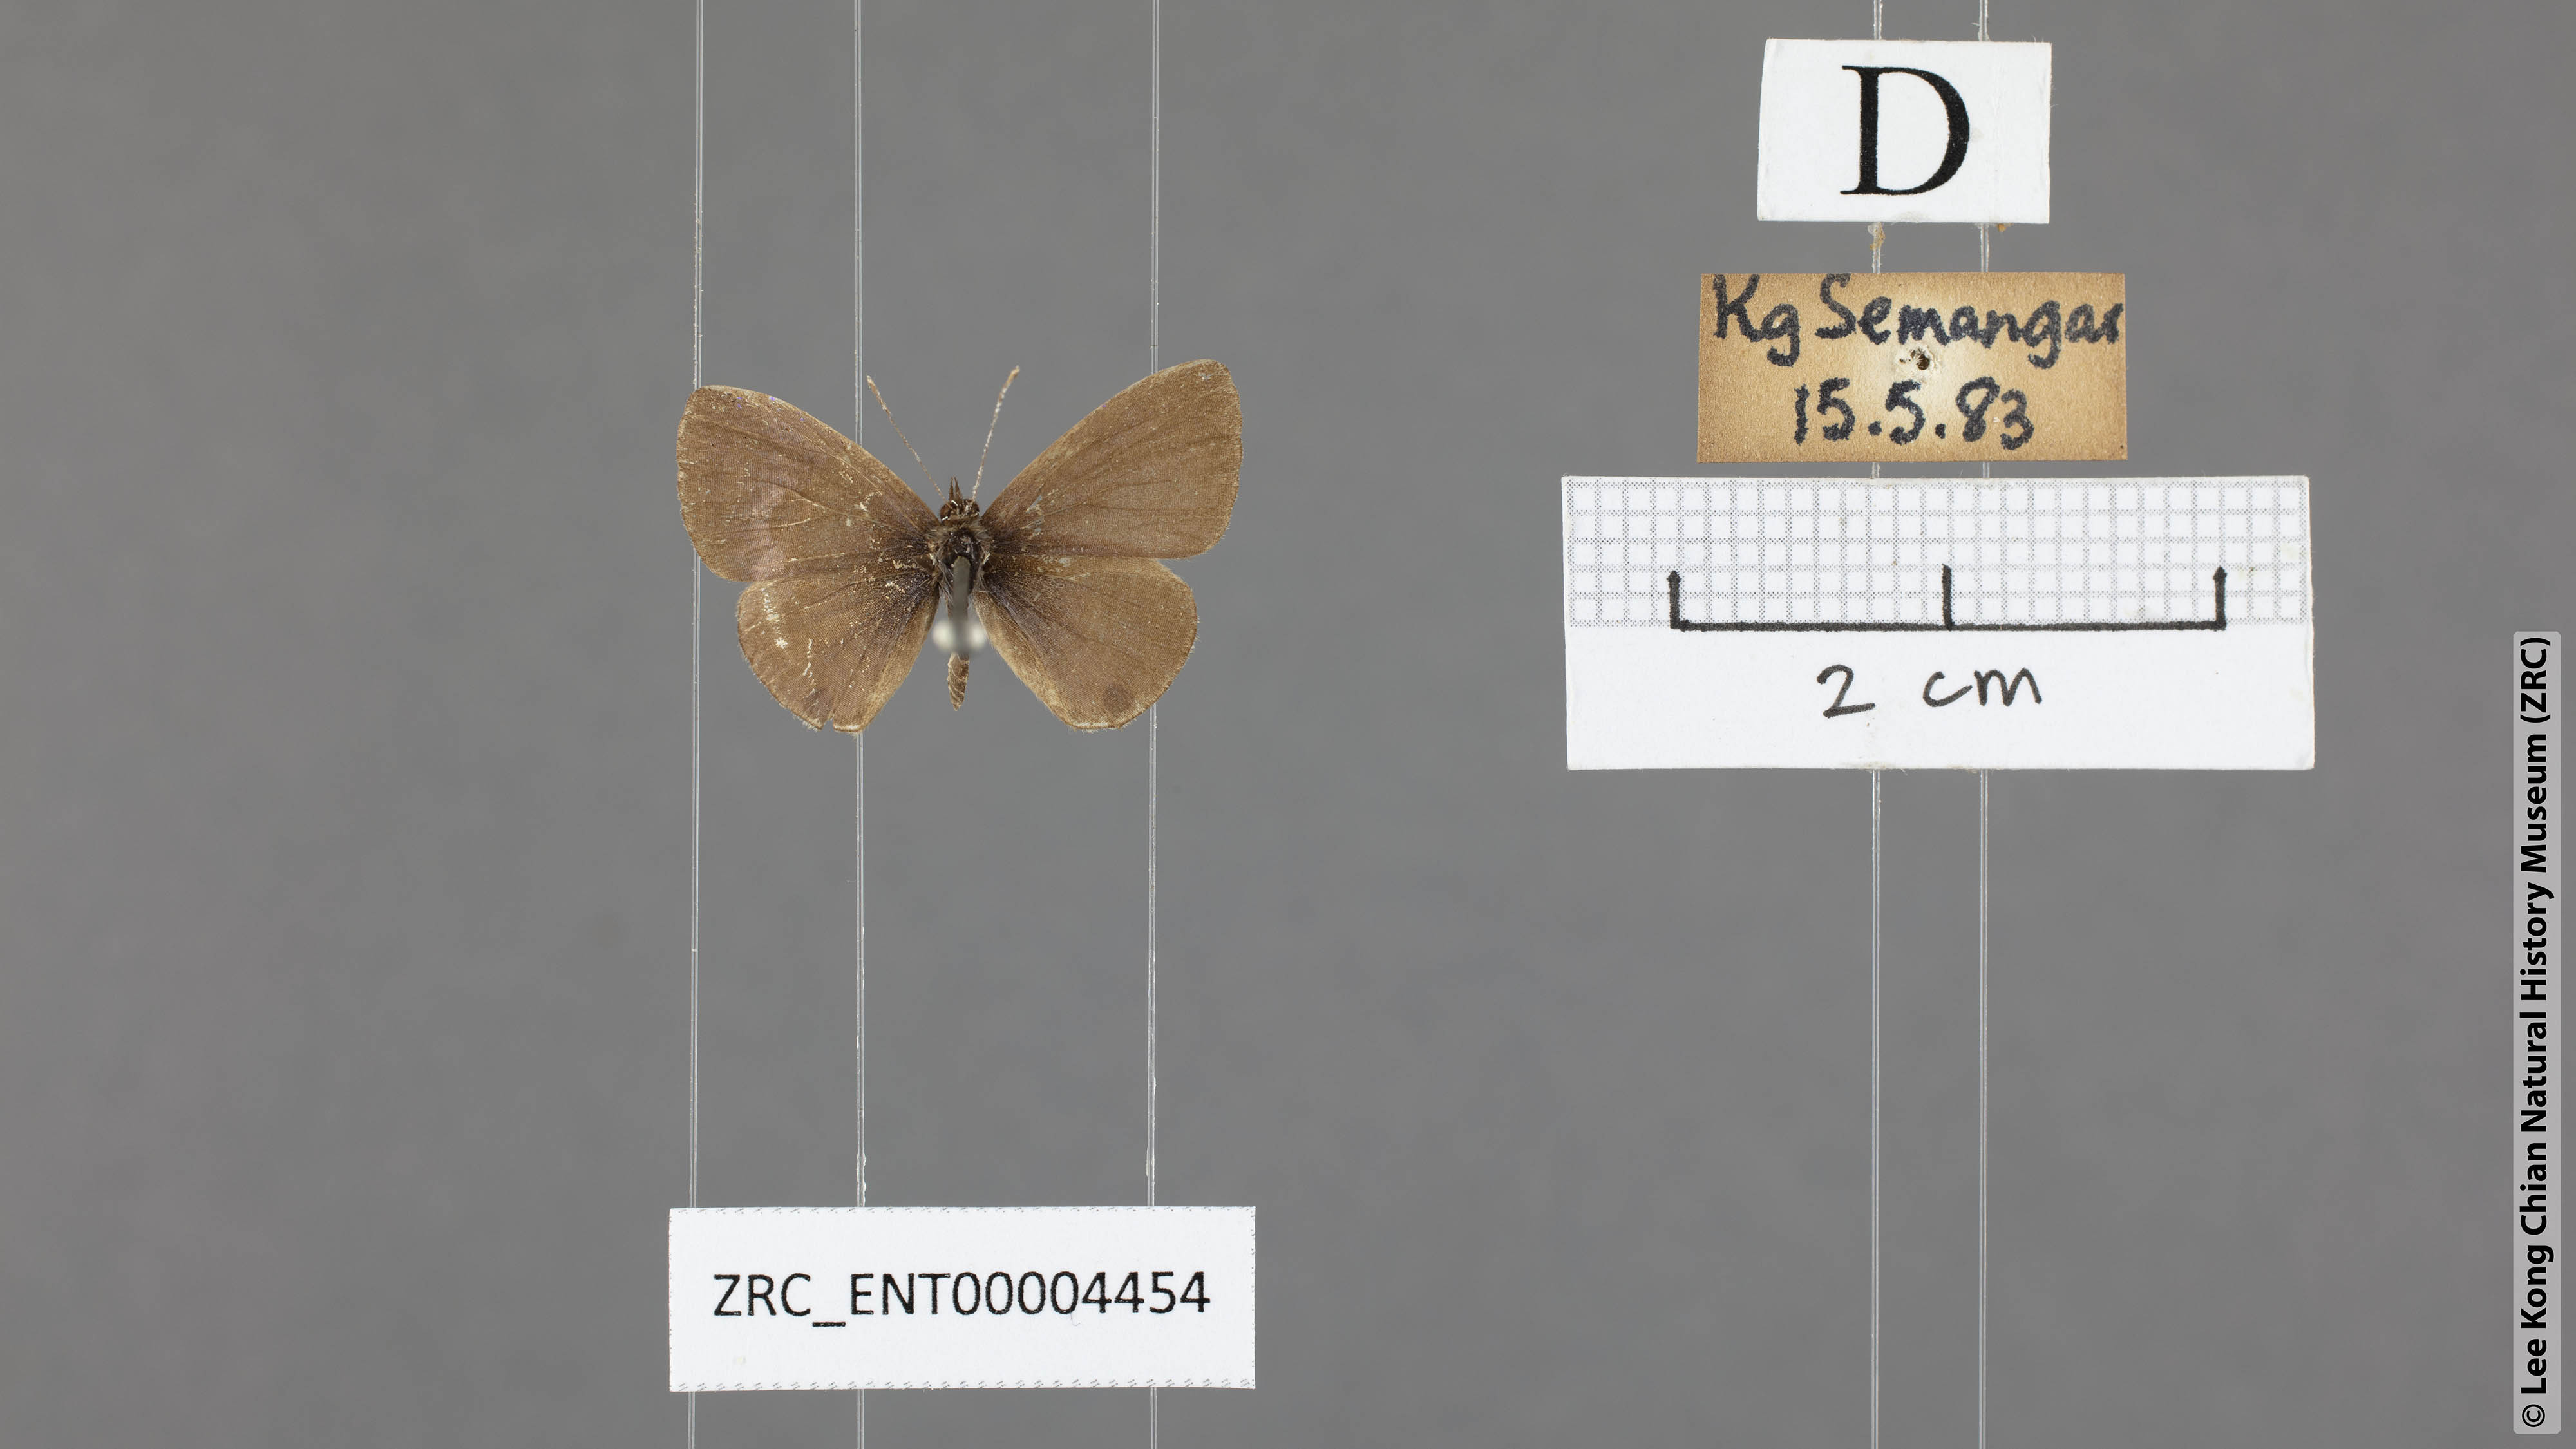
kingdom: Animalia
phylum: Arthropoda
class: Insecta
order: Lepidoptera
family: Lycaenidae
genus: Prosotas
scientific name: Prosotas lutea
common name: Brown lineblue
